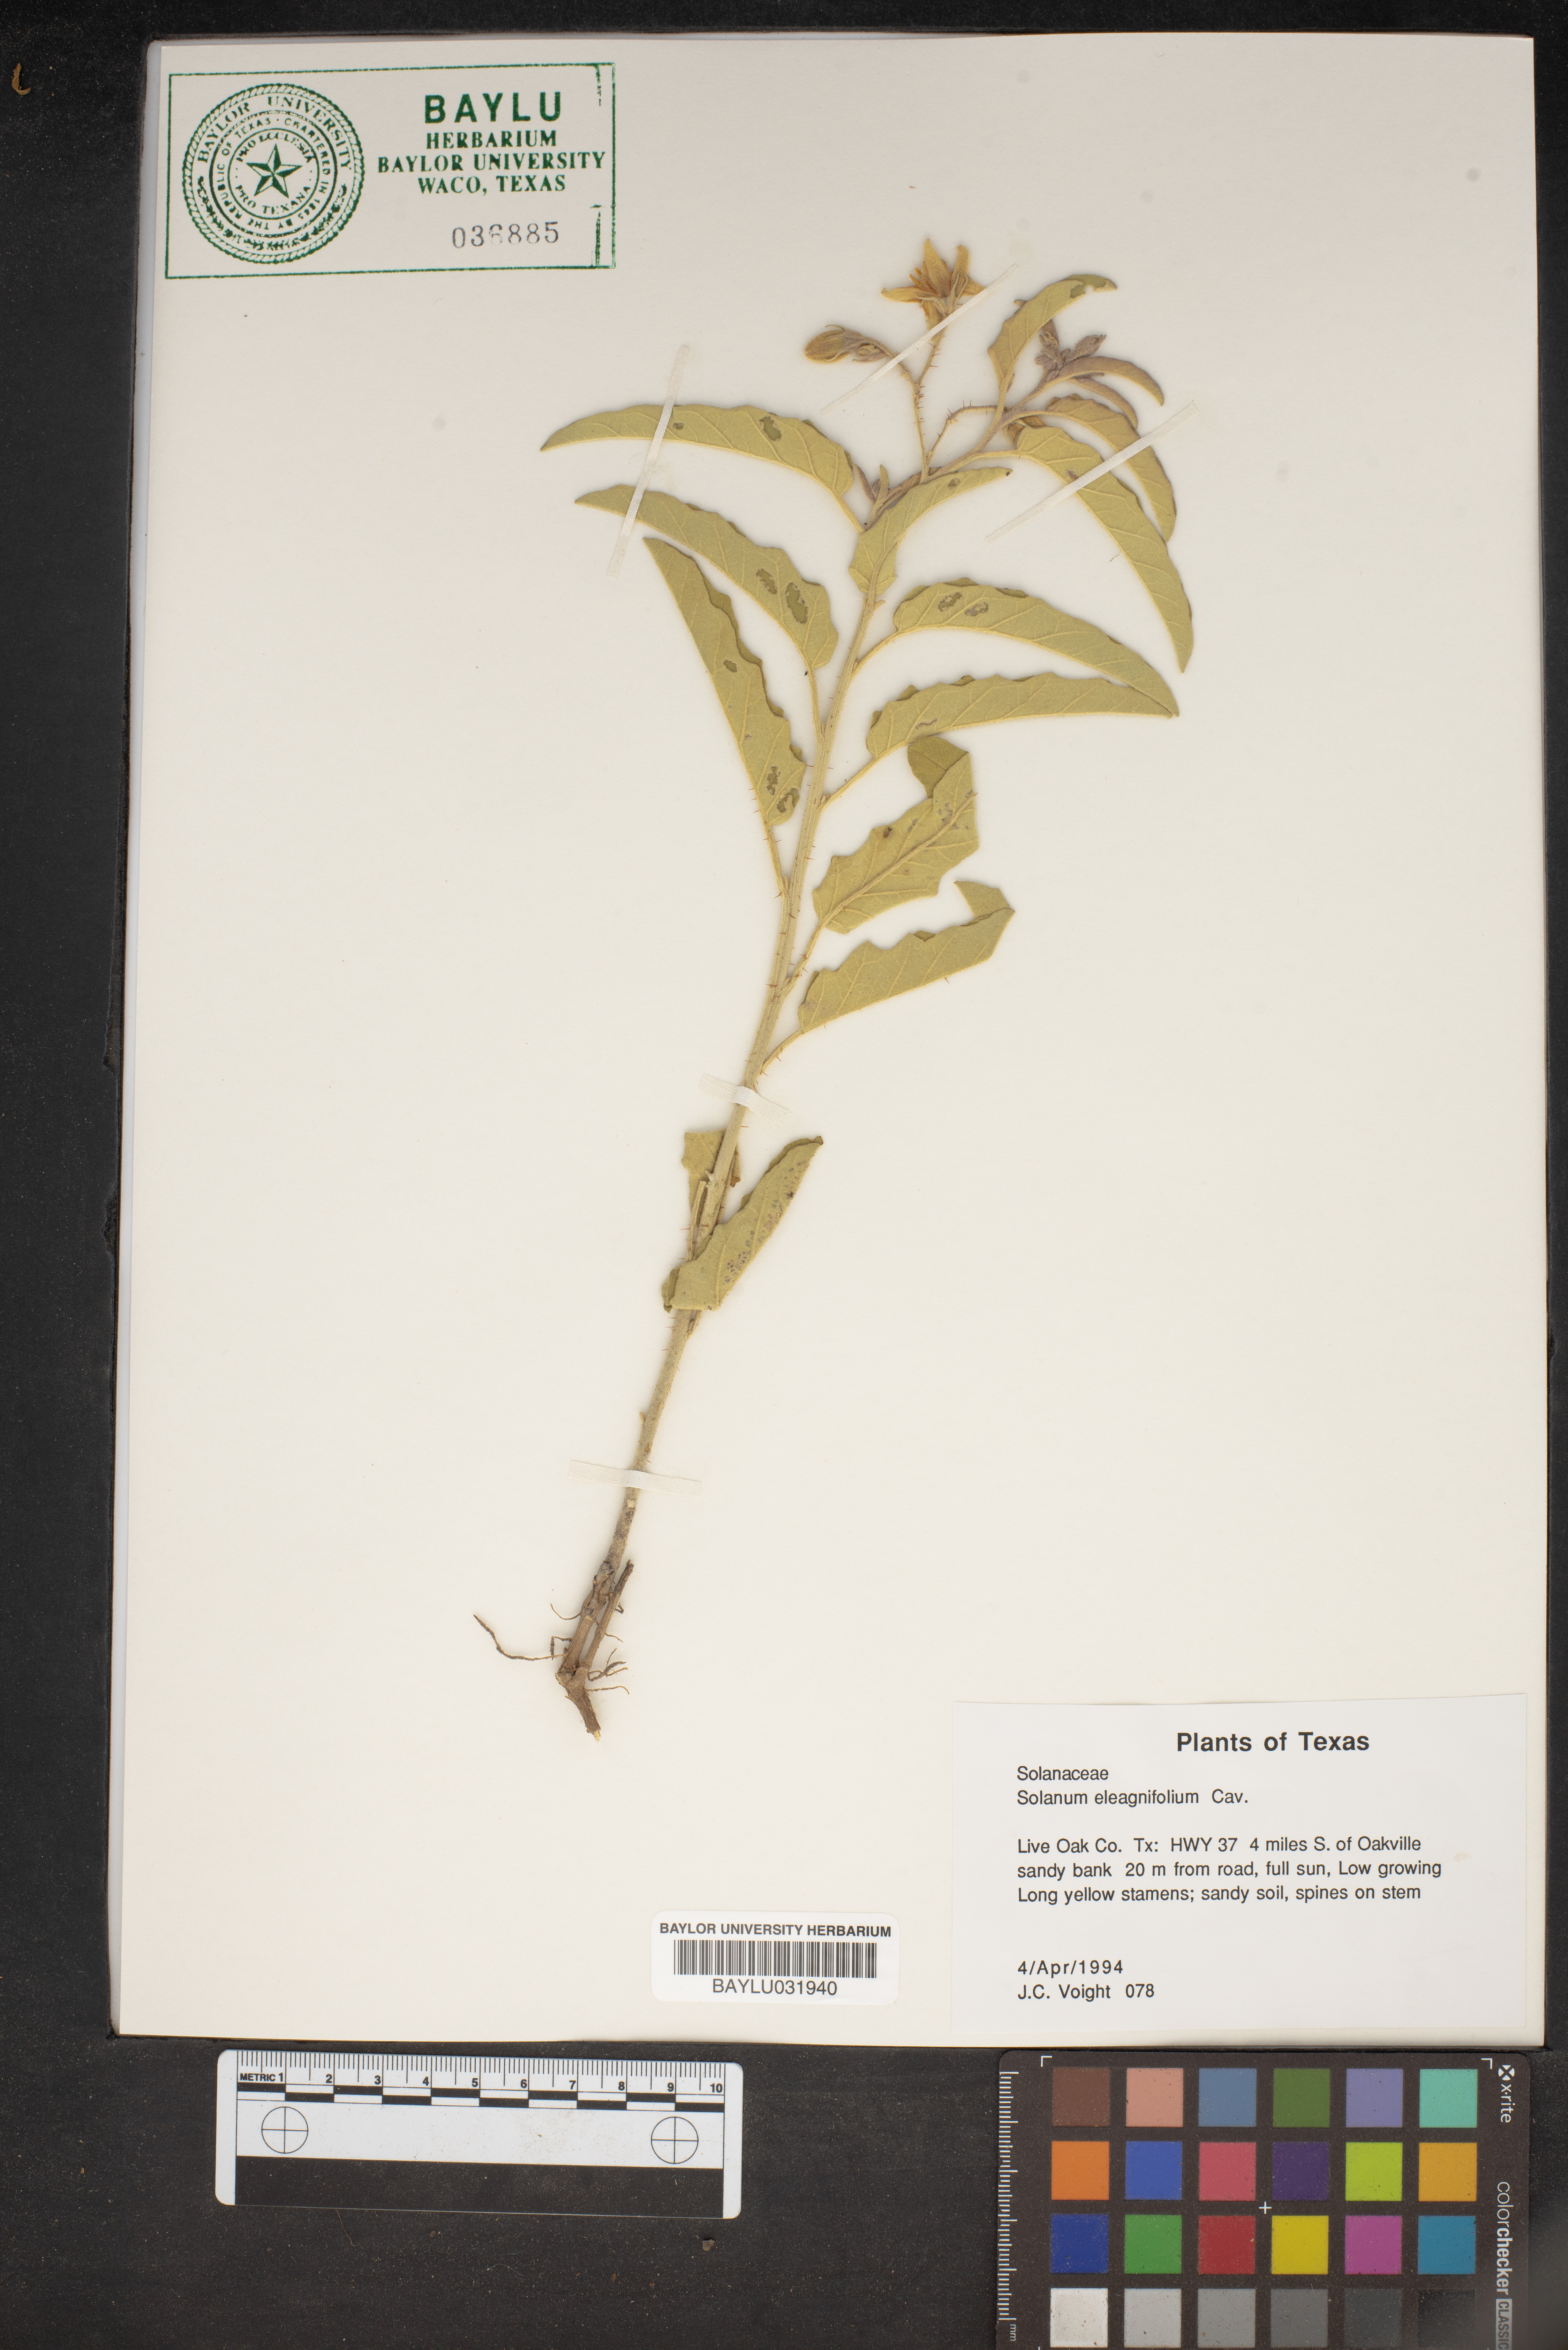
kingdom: Plantae
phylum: Tracheophyta
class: Magnoliopsida
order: Solanales
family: Solanaceae
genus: Solanum
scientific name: Solanum elaeagnifolium
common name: Silverleaf nightshade
